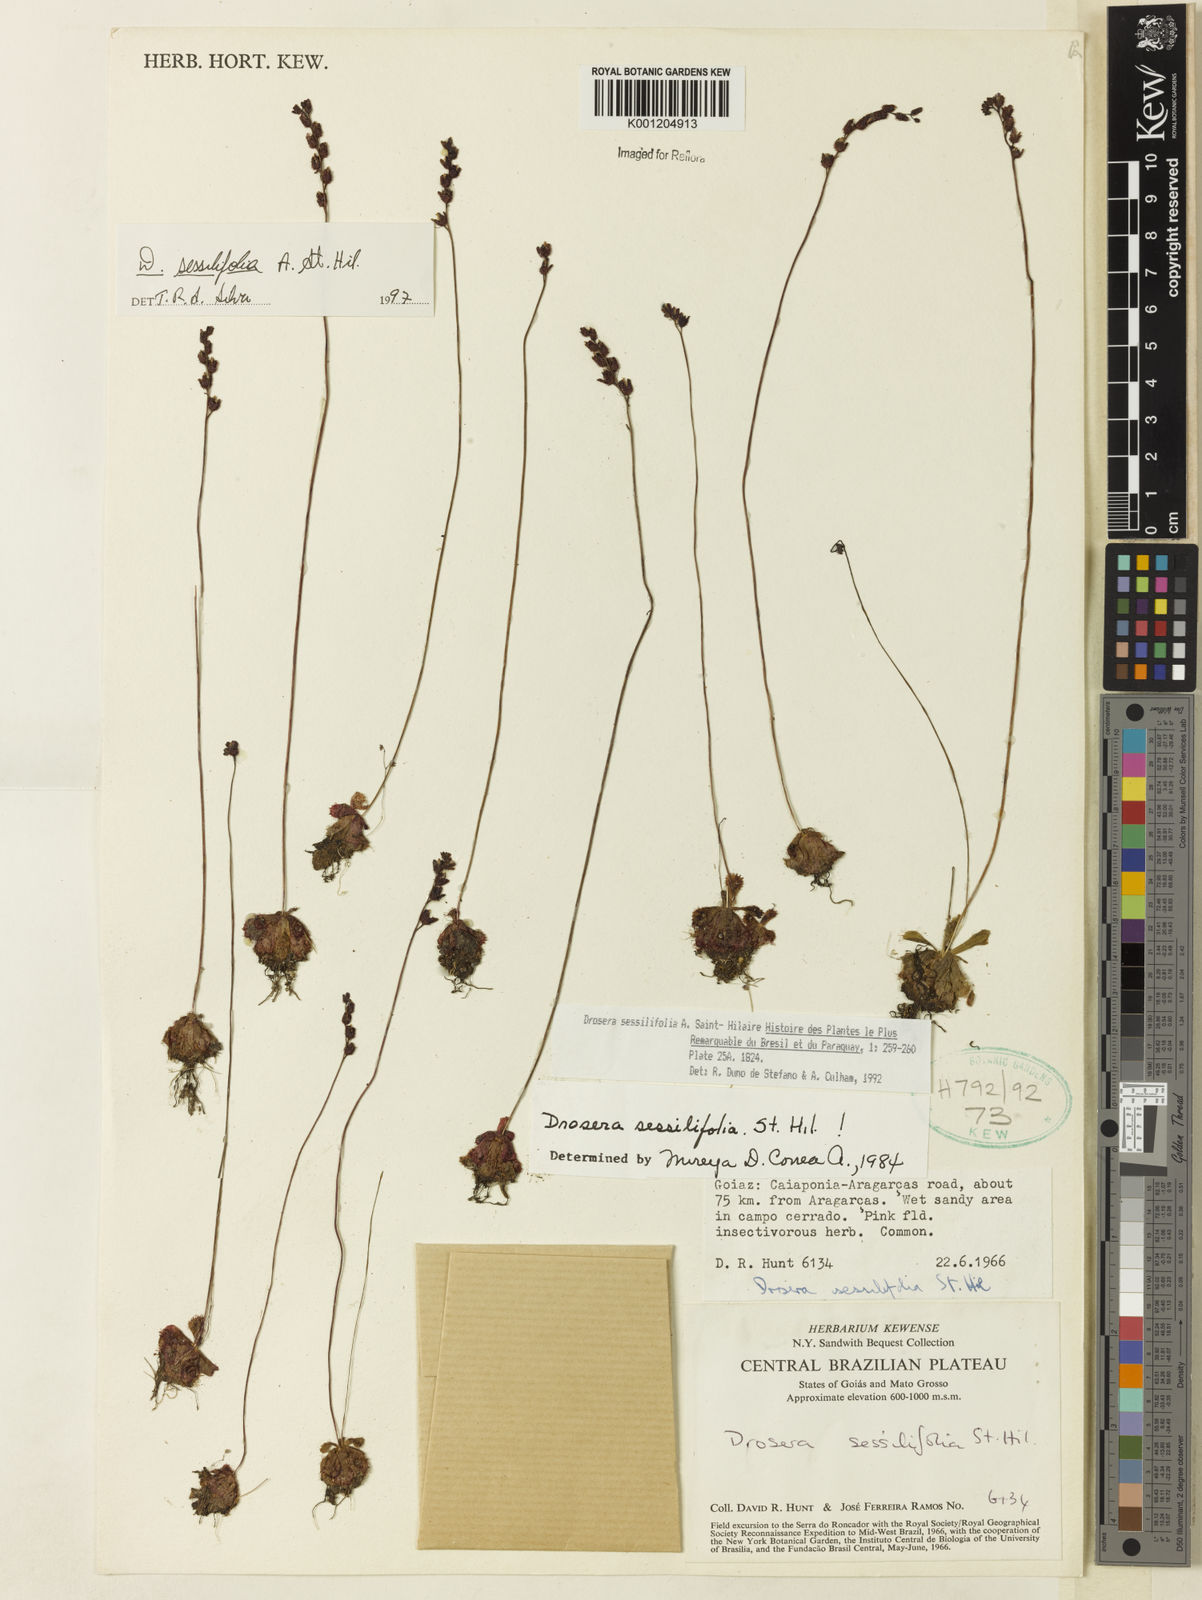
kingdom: Plantae
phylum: Tracheophyta
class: Magnoliopsida
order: Caryophyllales
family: Droseraceae
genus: Drosera
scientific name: Drosera sessilifolia
